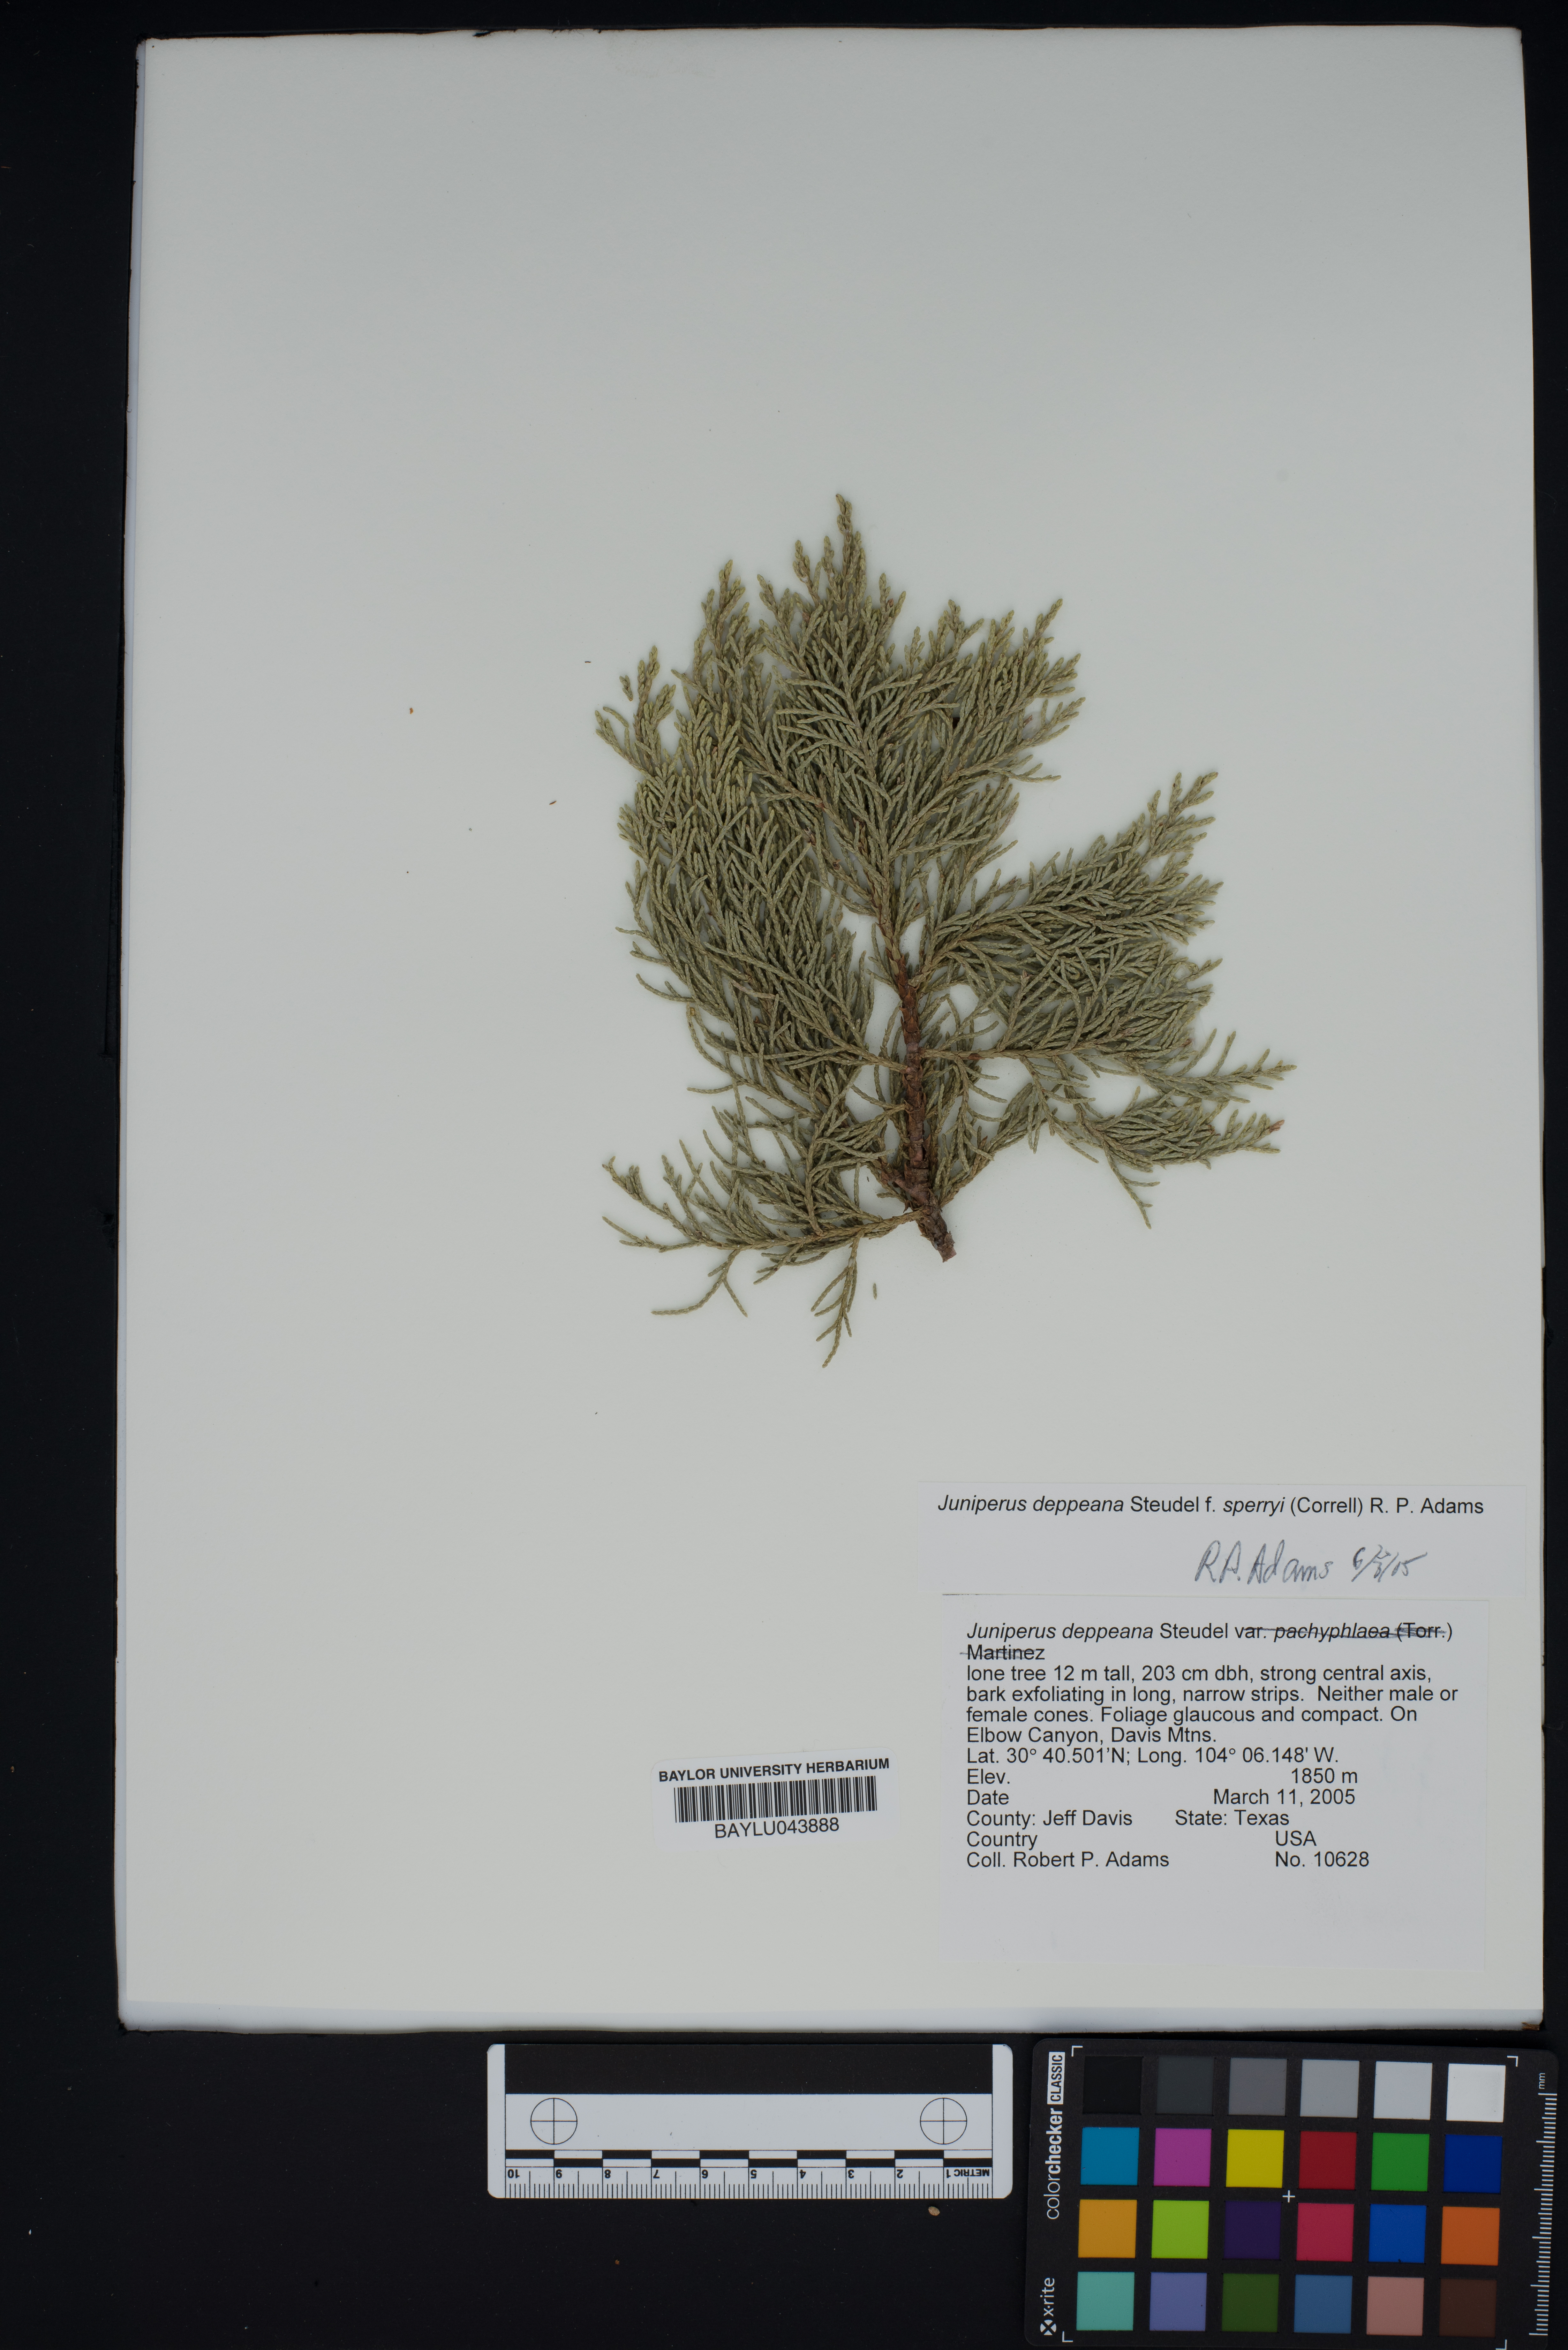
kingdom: Plantae
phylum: Tracheophyta
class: Pinopsida
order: Pinales
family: Cupressaceae
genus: Juniperus
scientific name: Juniperus deppeana
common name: Alligator juniper
